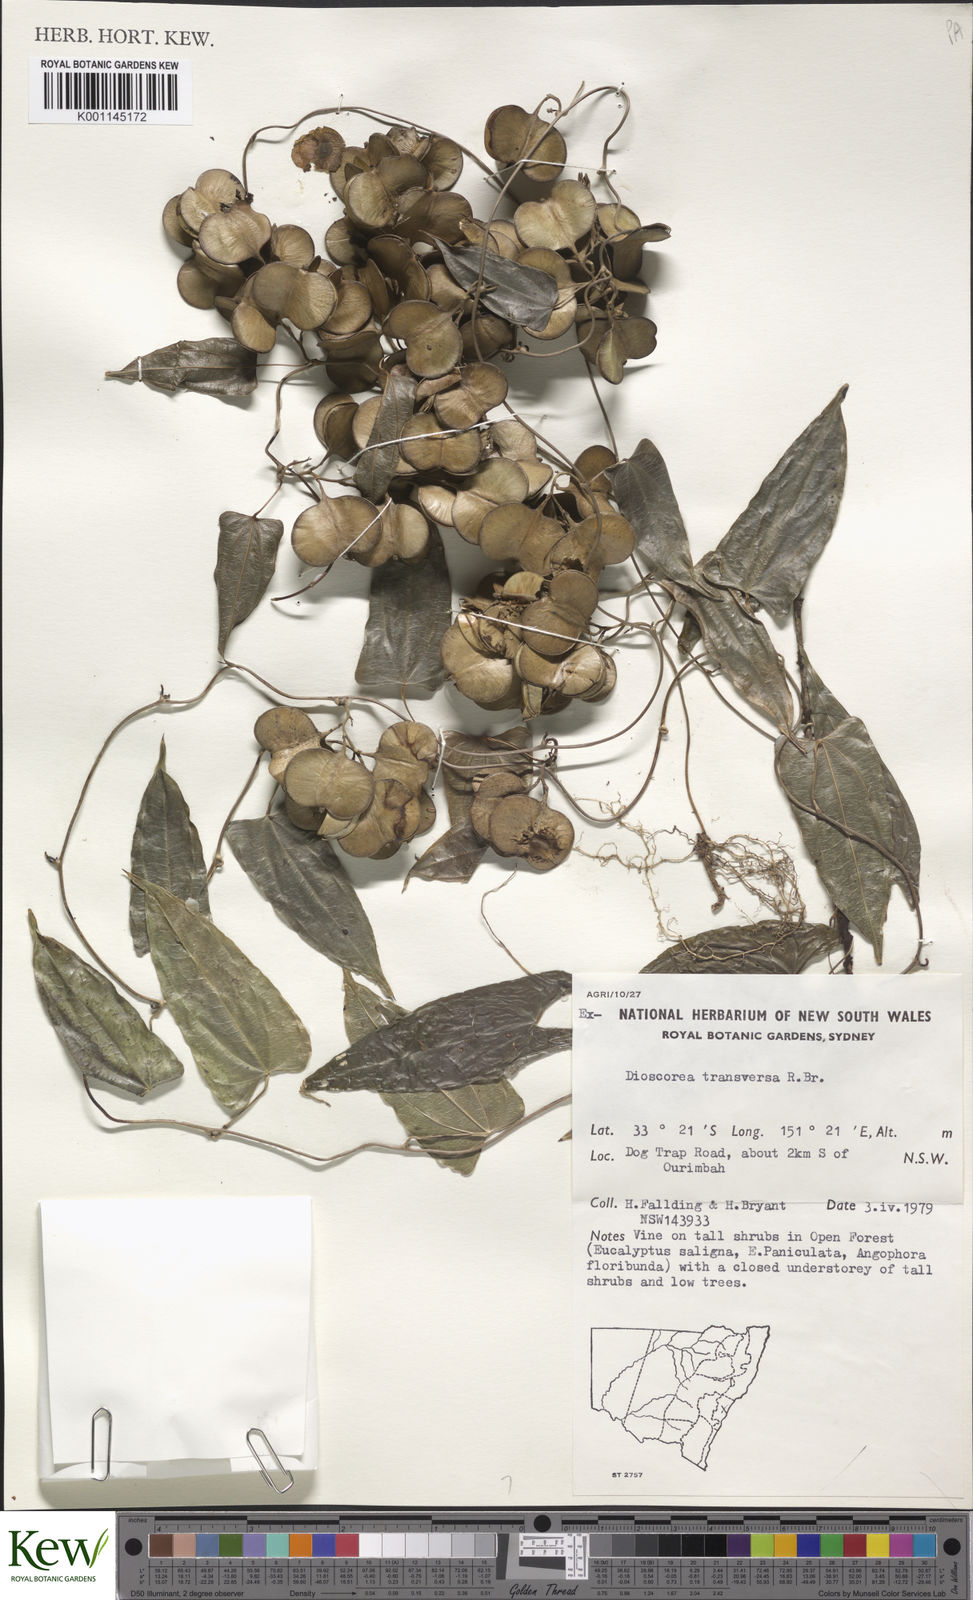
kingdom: Plantae
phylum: Tracheophyta
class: Liliopsida
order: Dioscoreales
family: Dioscoreaceae
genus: Dioscorea
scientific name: Dioscorea transversa
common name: Long yam
